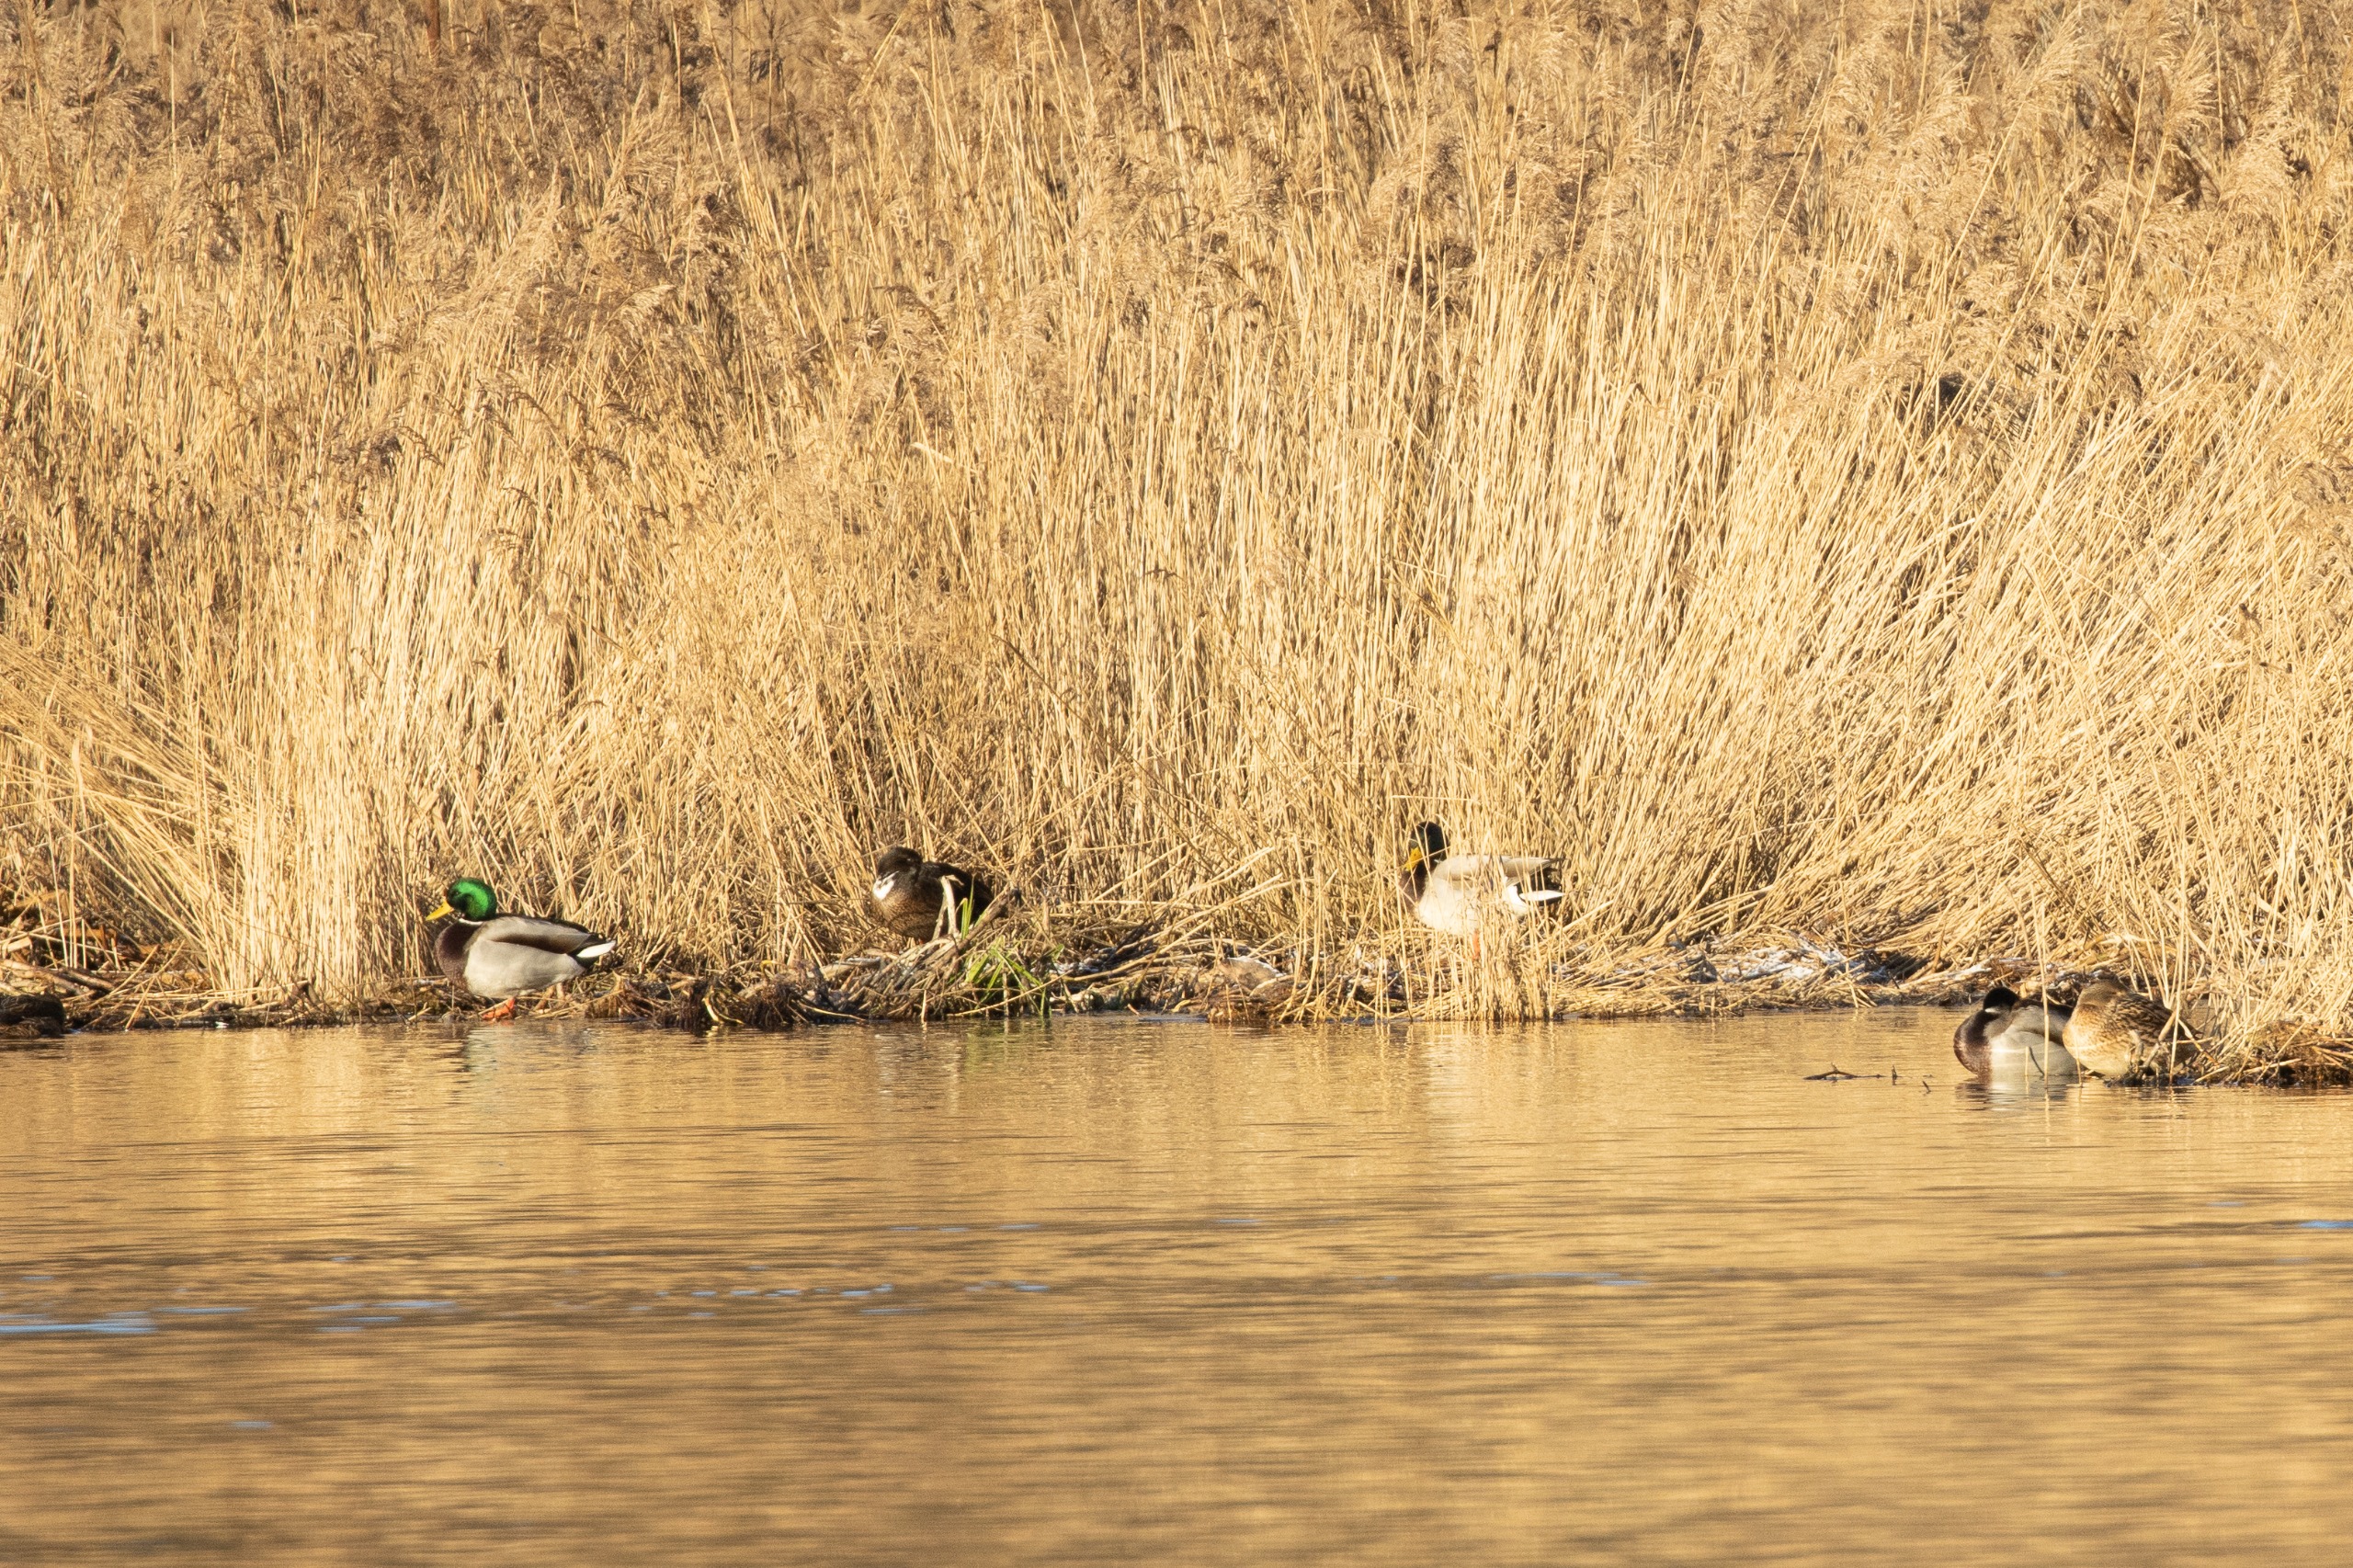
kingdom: Animalia
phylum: Chordata
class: Aves
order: Anseriformes
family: Anatidae
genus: Anas
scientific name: Anas platyrhynchos
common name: Gråand
